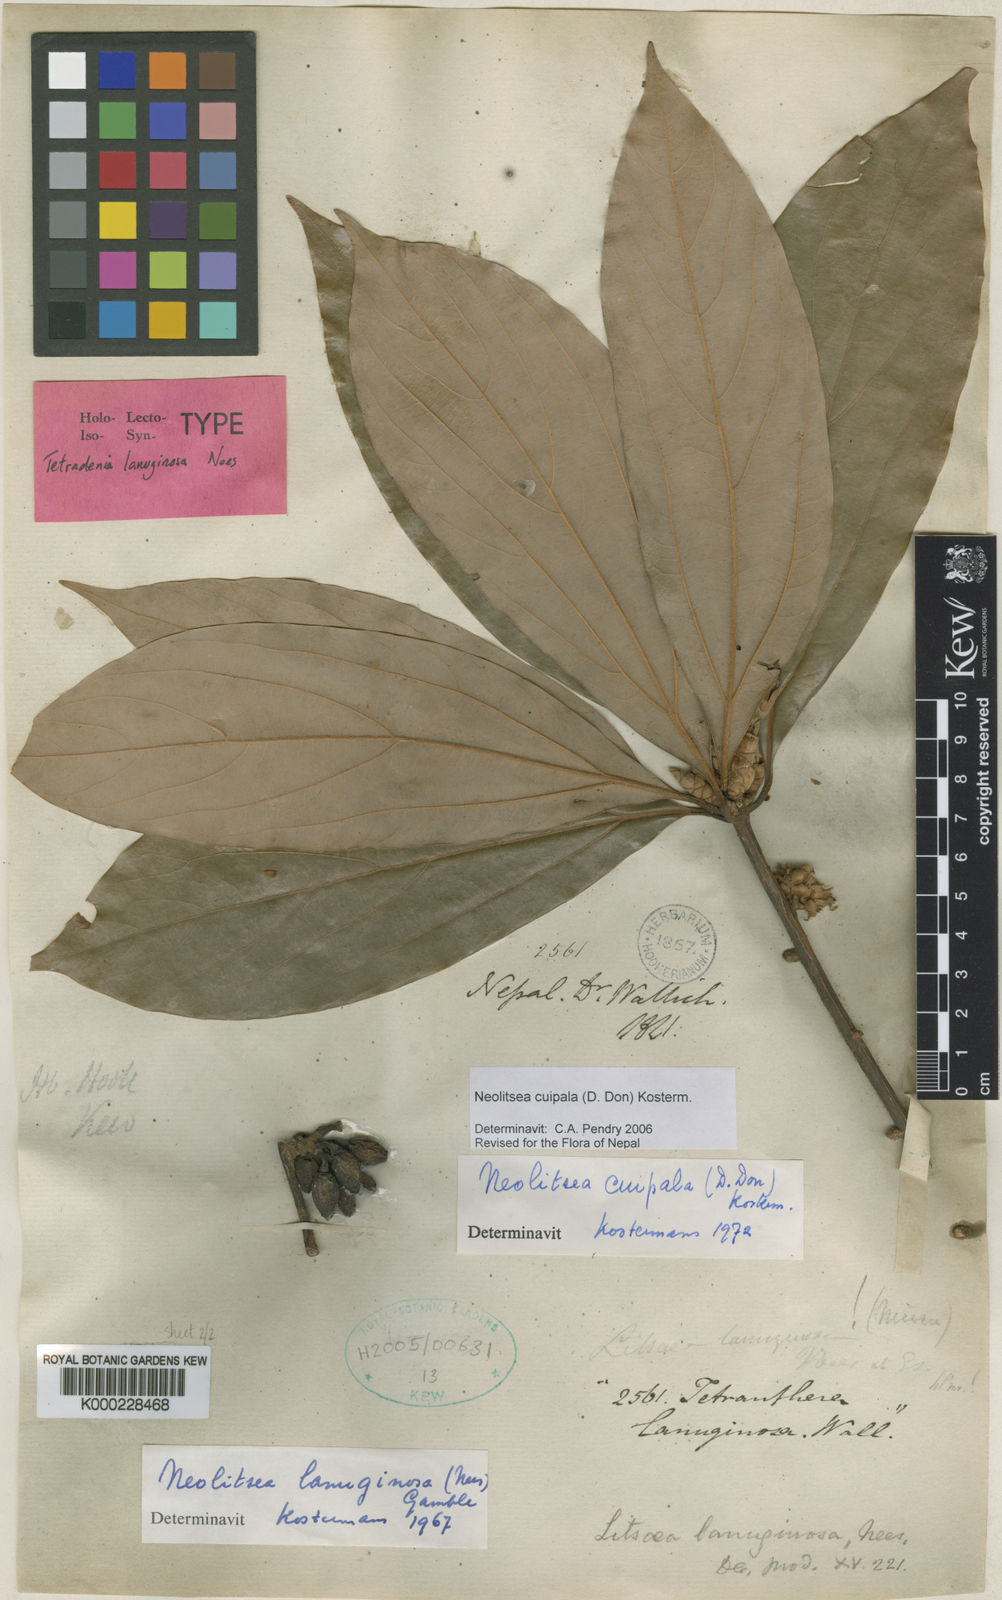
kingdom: Plantae
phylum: Tracheophyta
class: Magnoliopsida
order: Laurales
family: Lauraceae
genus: Neolitsea
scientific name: Neolitsea cuipala
